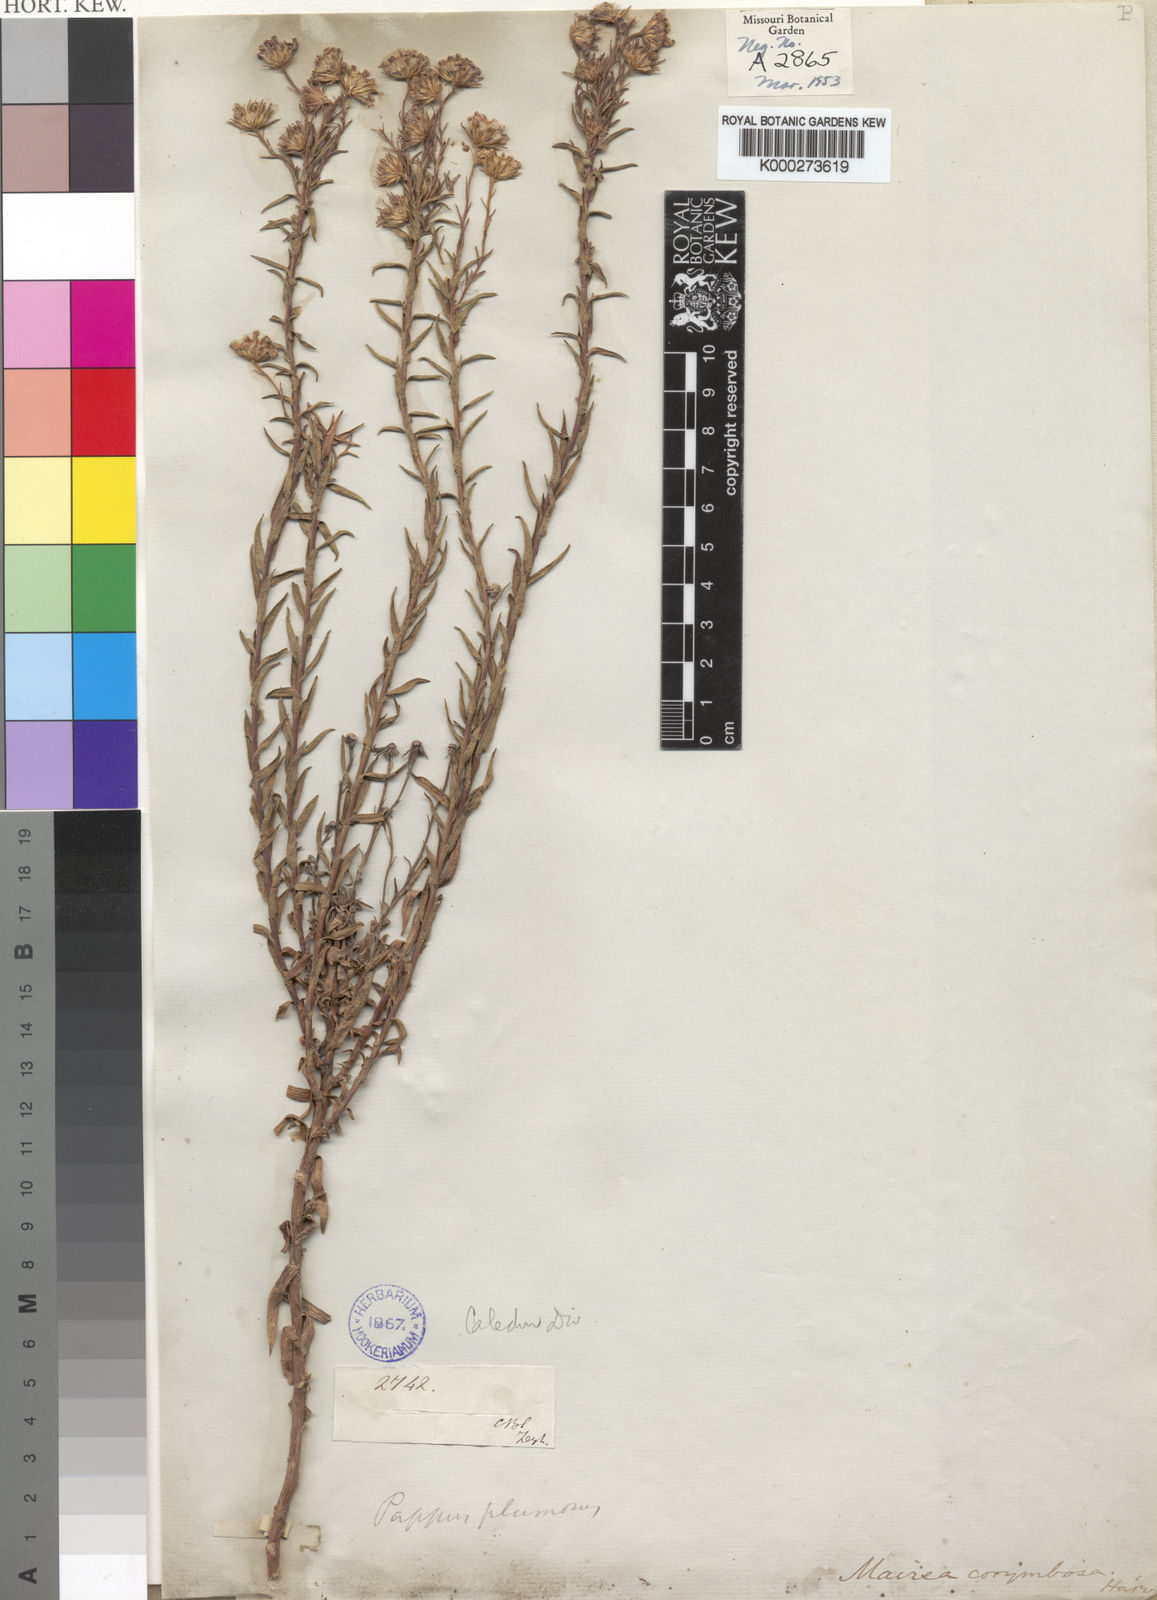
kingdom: Plantae
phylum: Tracheophyta
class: Magnoliopsida
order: Asterales
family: Asteraceae
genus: Zyrphelis
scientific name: Zyrphelis corymbosa
